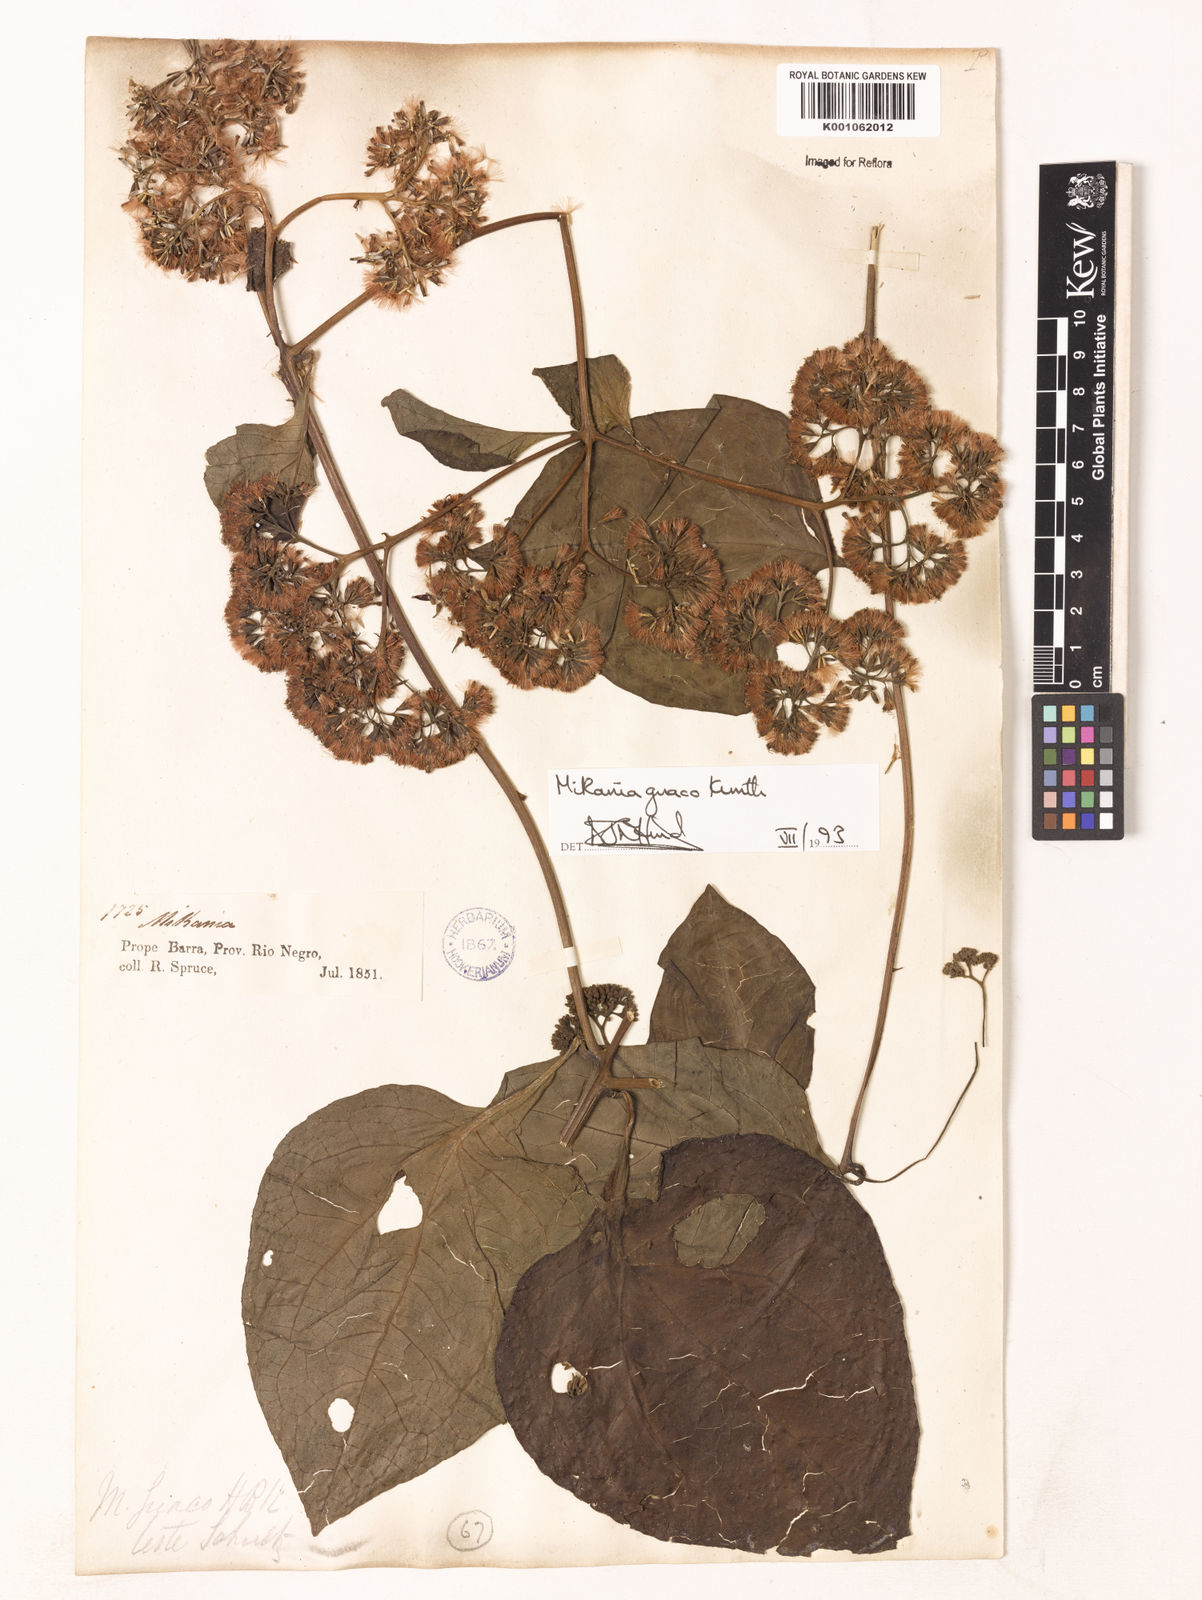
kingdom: Plantae
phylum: Tracheophyta
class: Magnoliopsida
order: Asterales
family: Asteraceae
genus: Mikania
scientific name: Mikania
